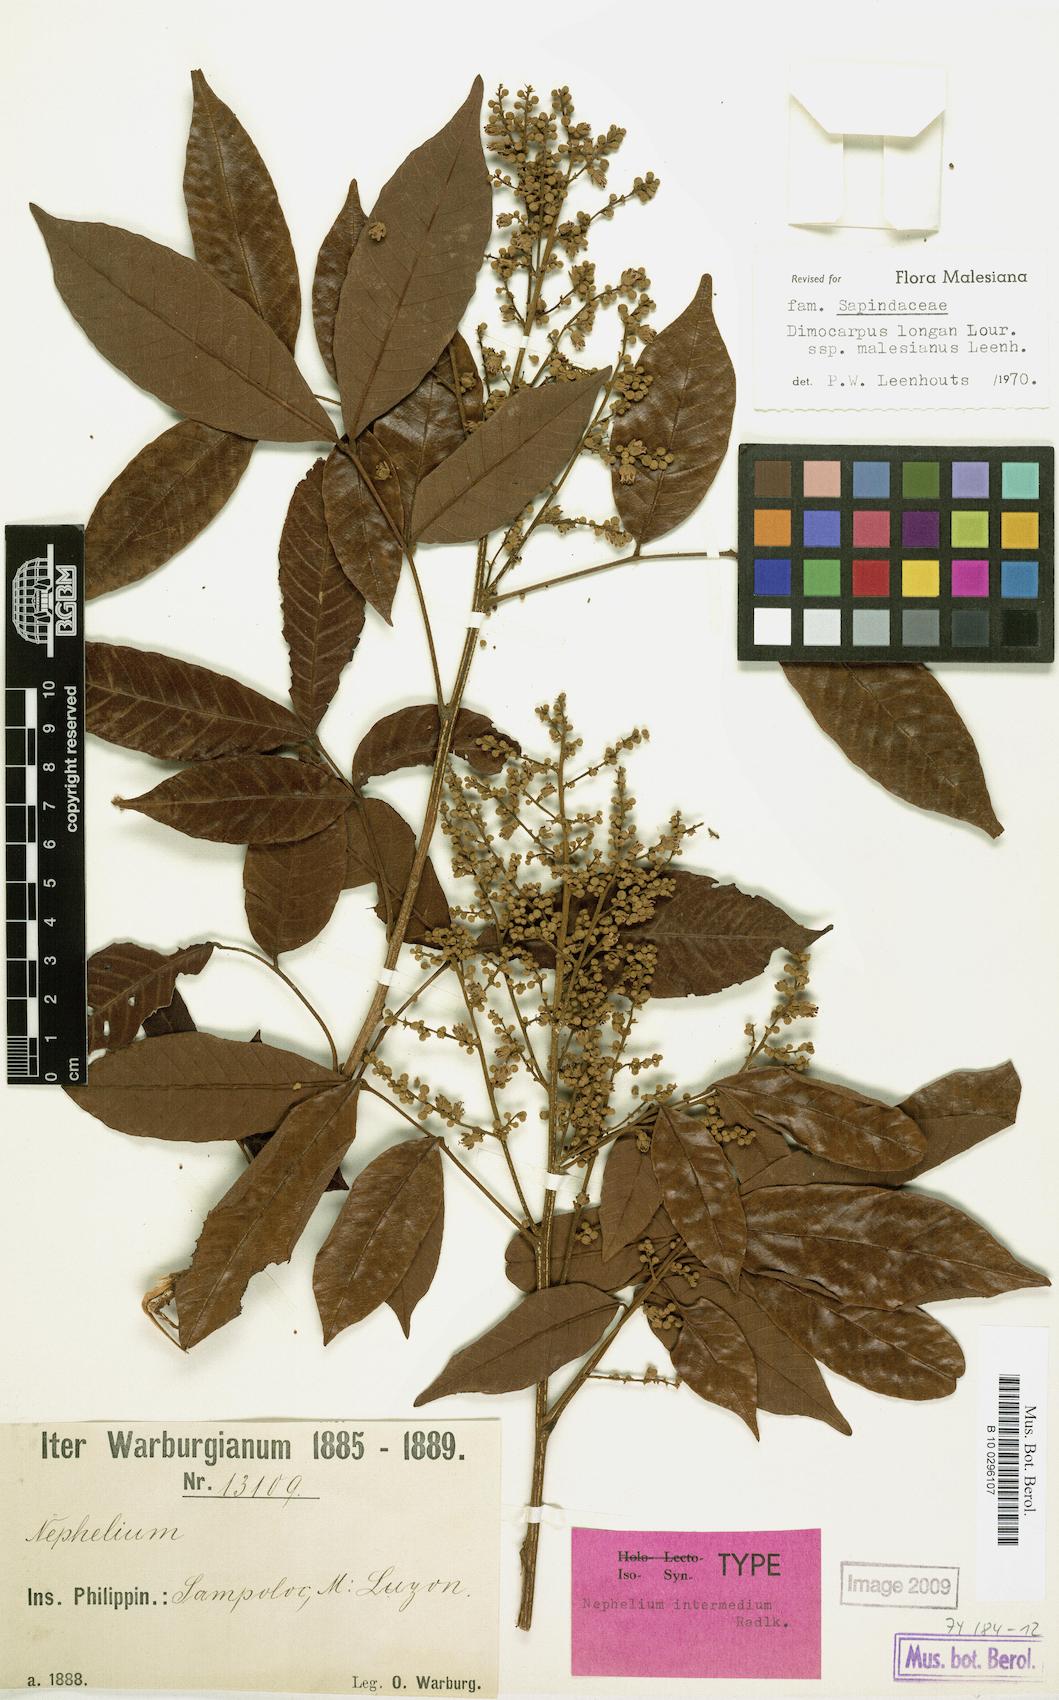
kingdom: Plantae
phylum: Tracheophyta
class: Magnoliopsida
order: Sapindales
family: Sapindaceae
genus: Nephelium
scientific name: Nephelium ramboutan-ake
